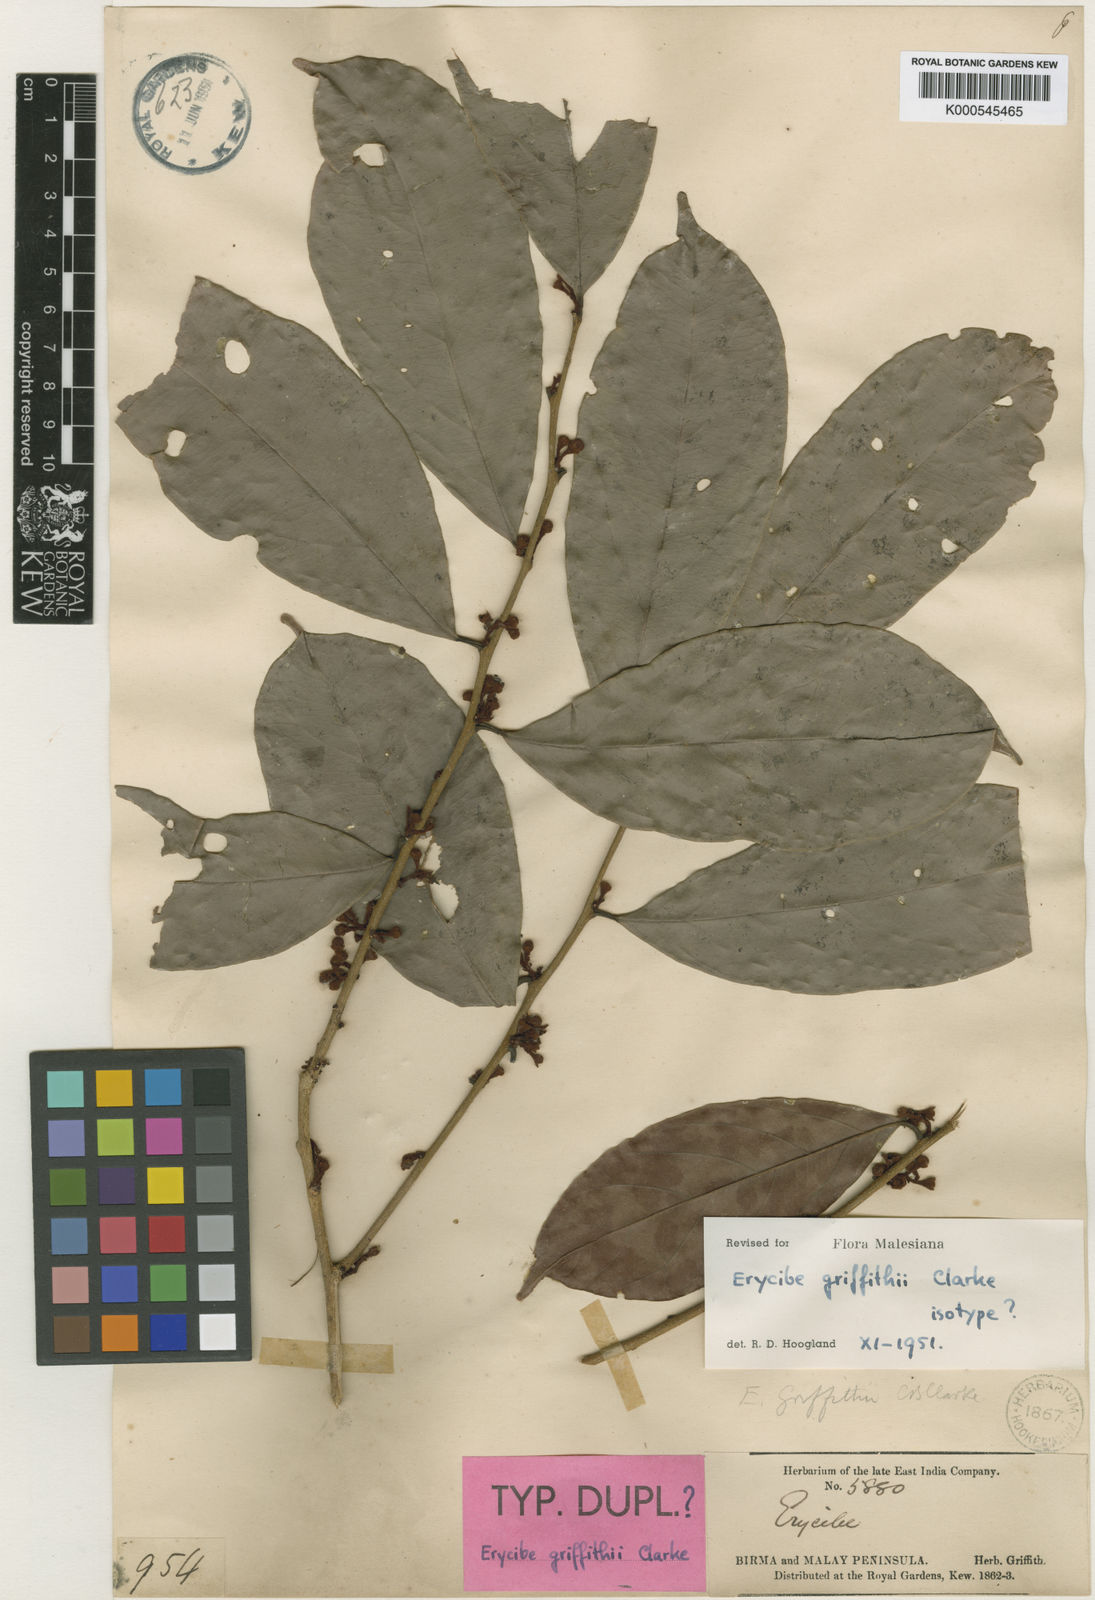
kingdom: Plantae
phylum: Tracheophyta
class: Magnoliopsida
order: Solanales
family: Convolvulaceae
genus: Erycibe
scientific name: Erycibe griffithii
